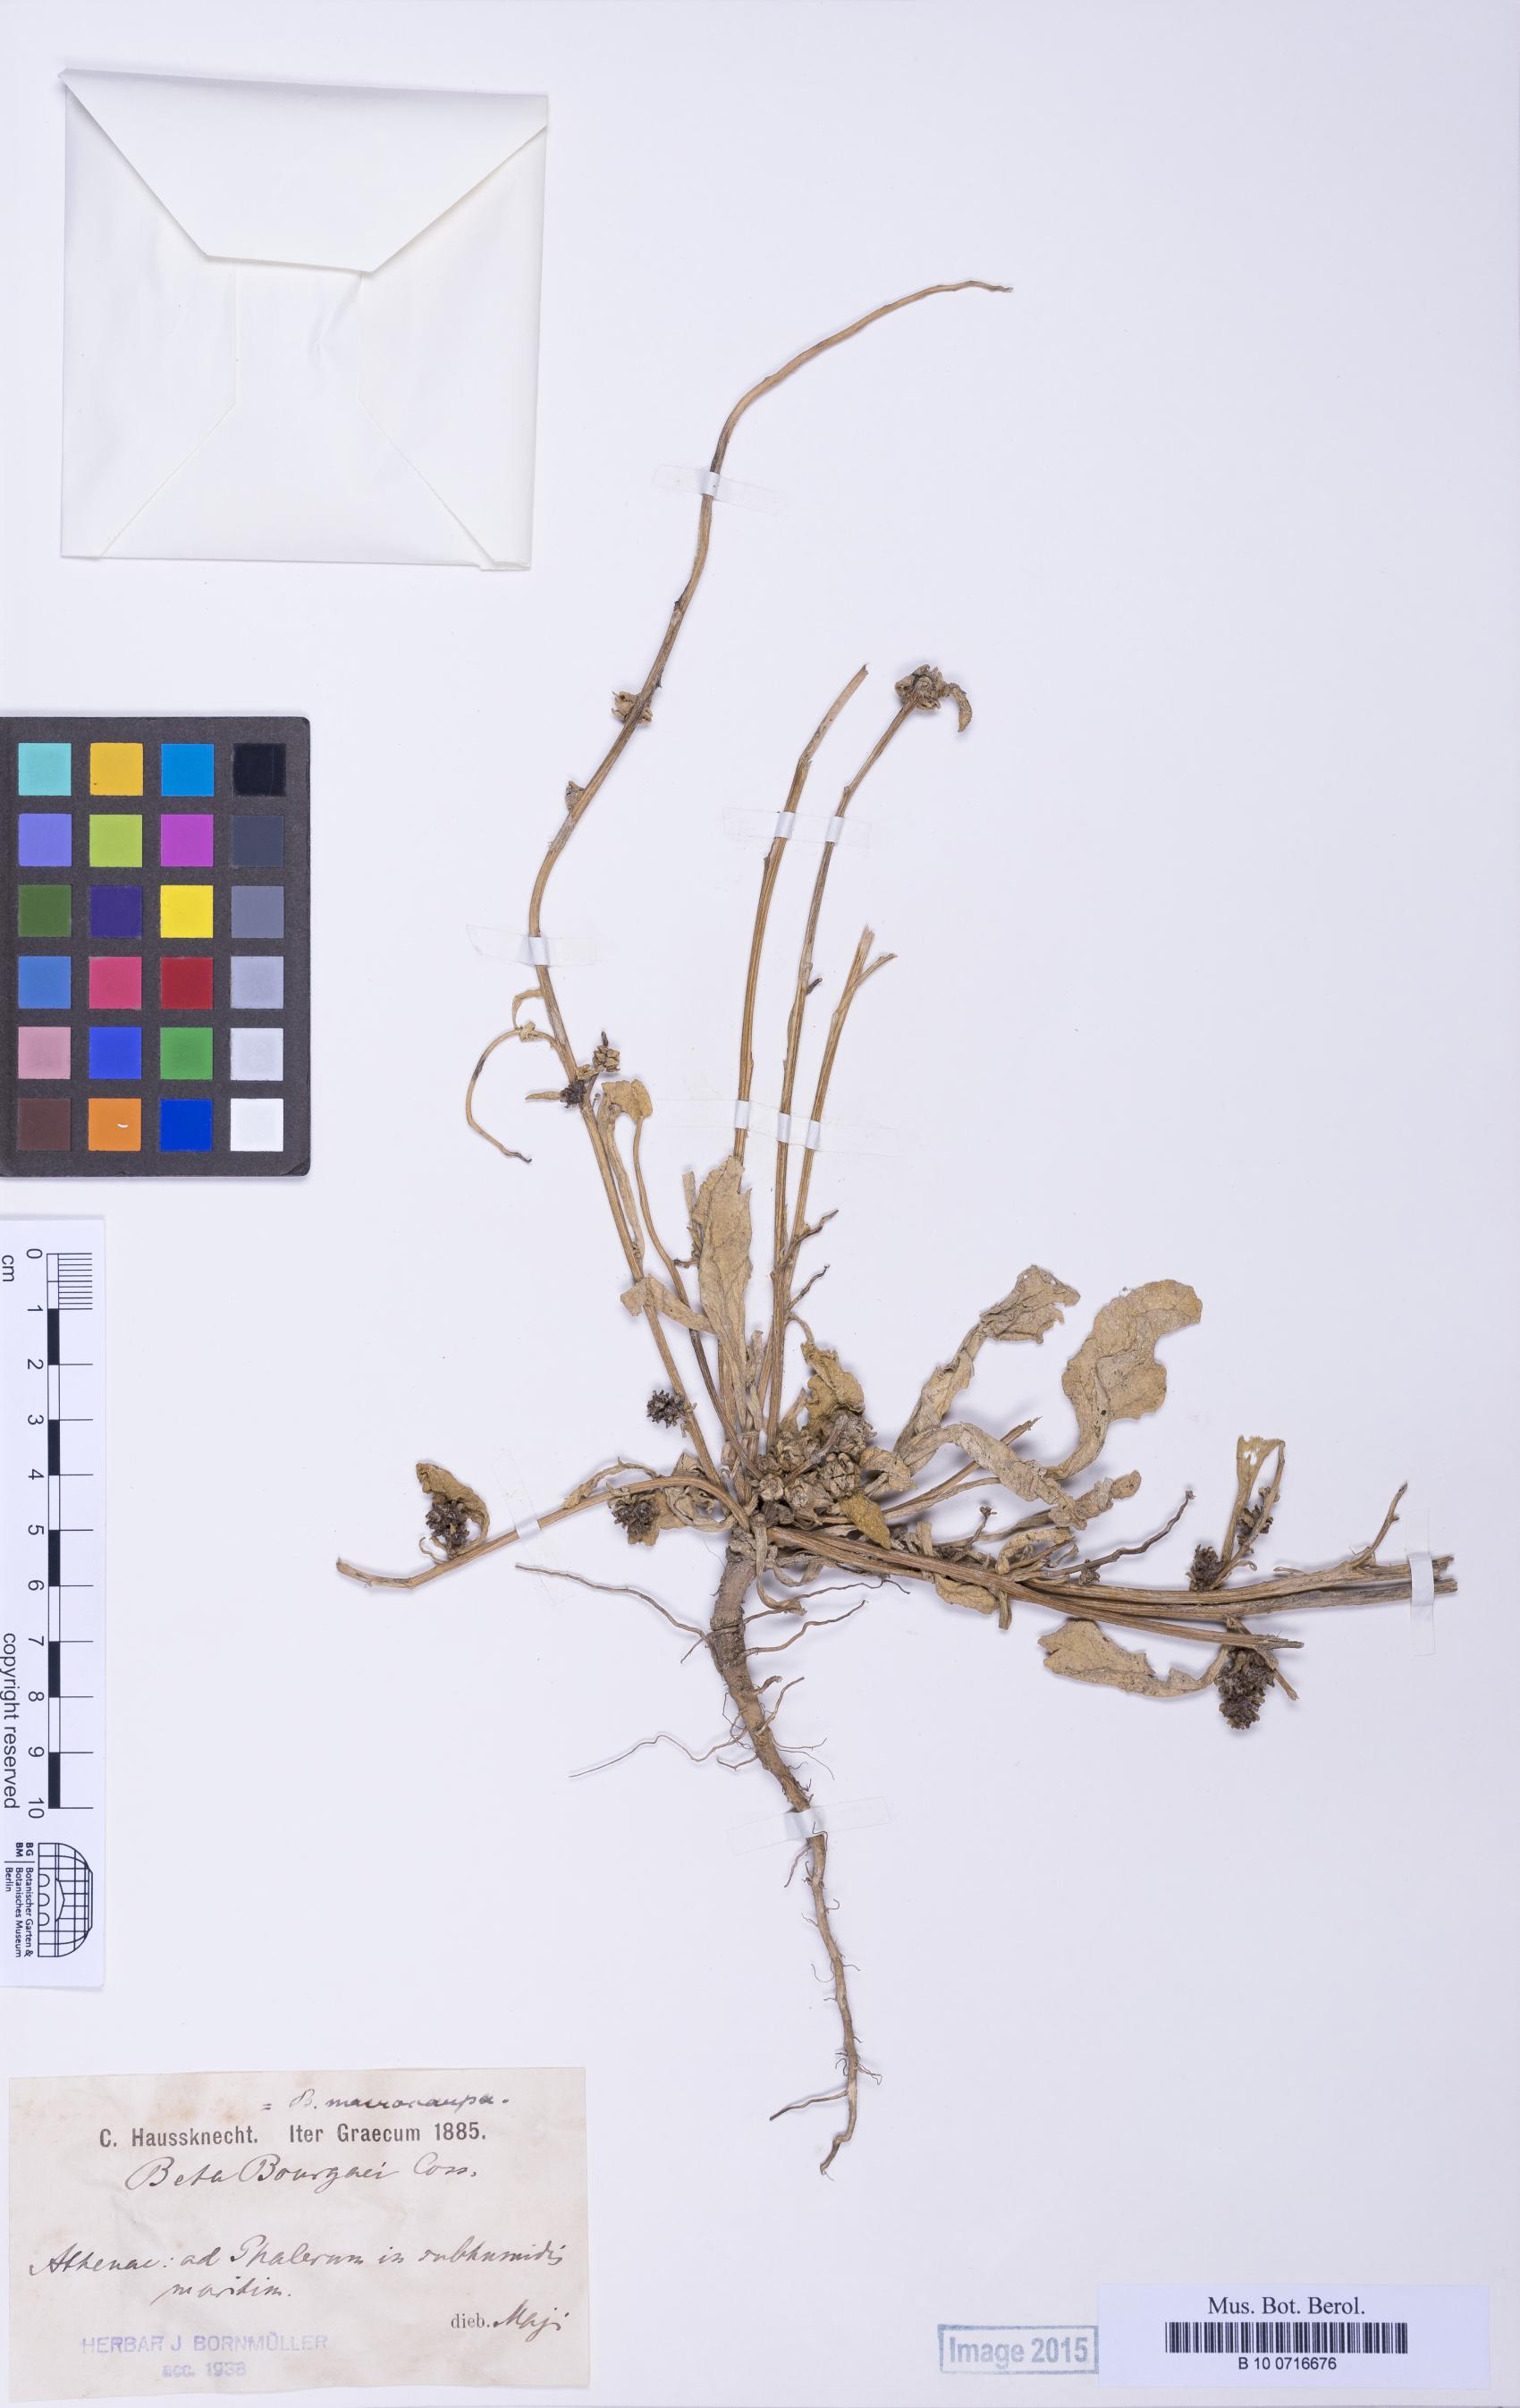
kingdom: Plantae
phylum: Tracheophyta
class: Magnoliopsida
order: Caryophyllales
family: Amaranthaceae
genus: Beta
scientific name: Beta macrocarpa
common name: Beet
